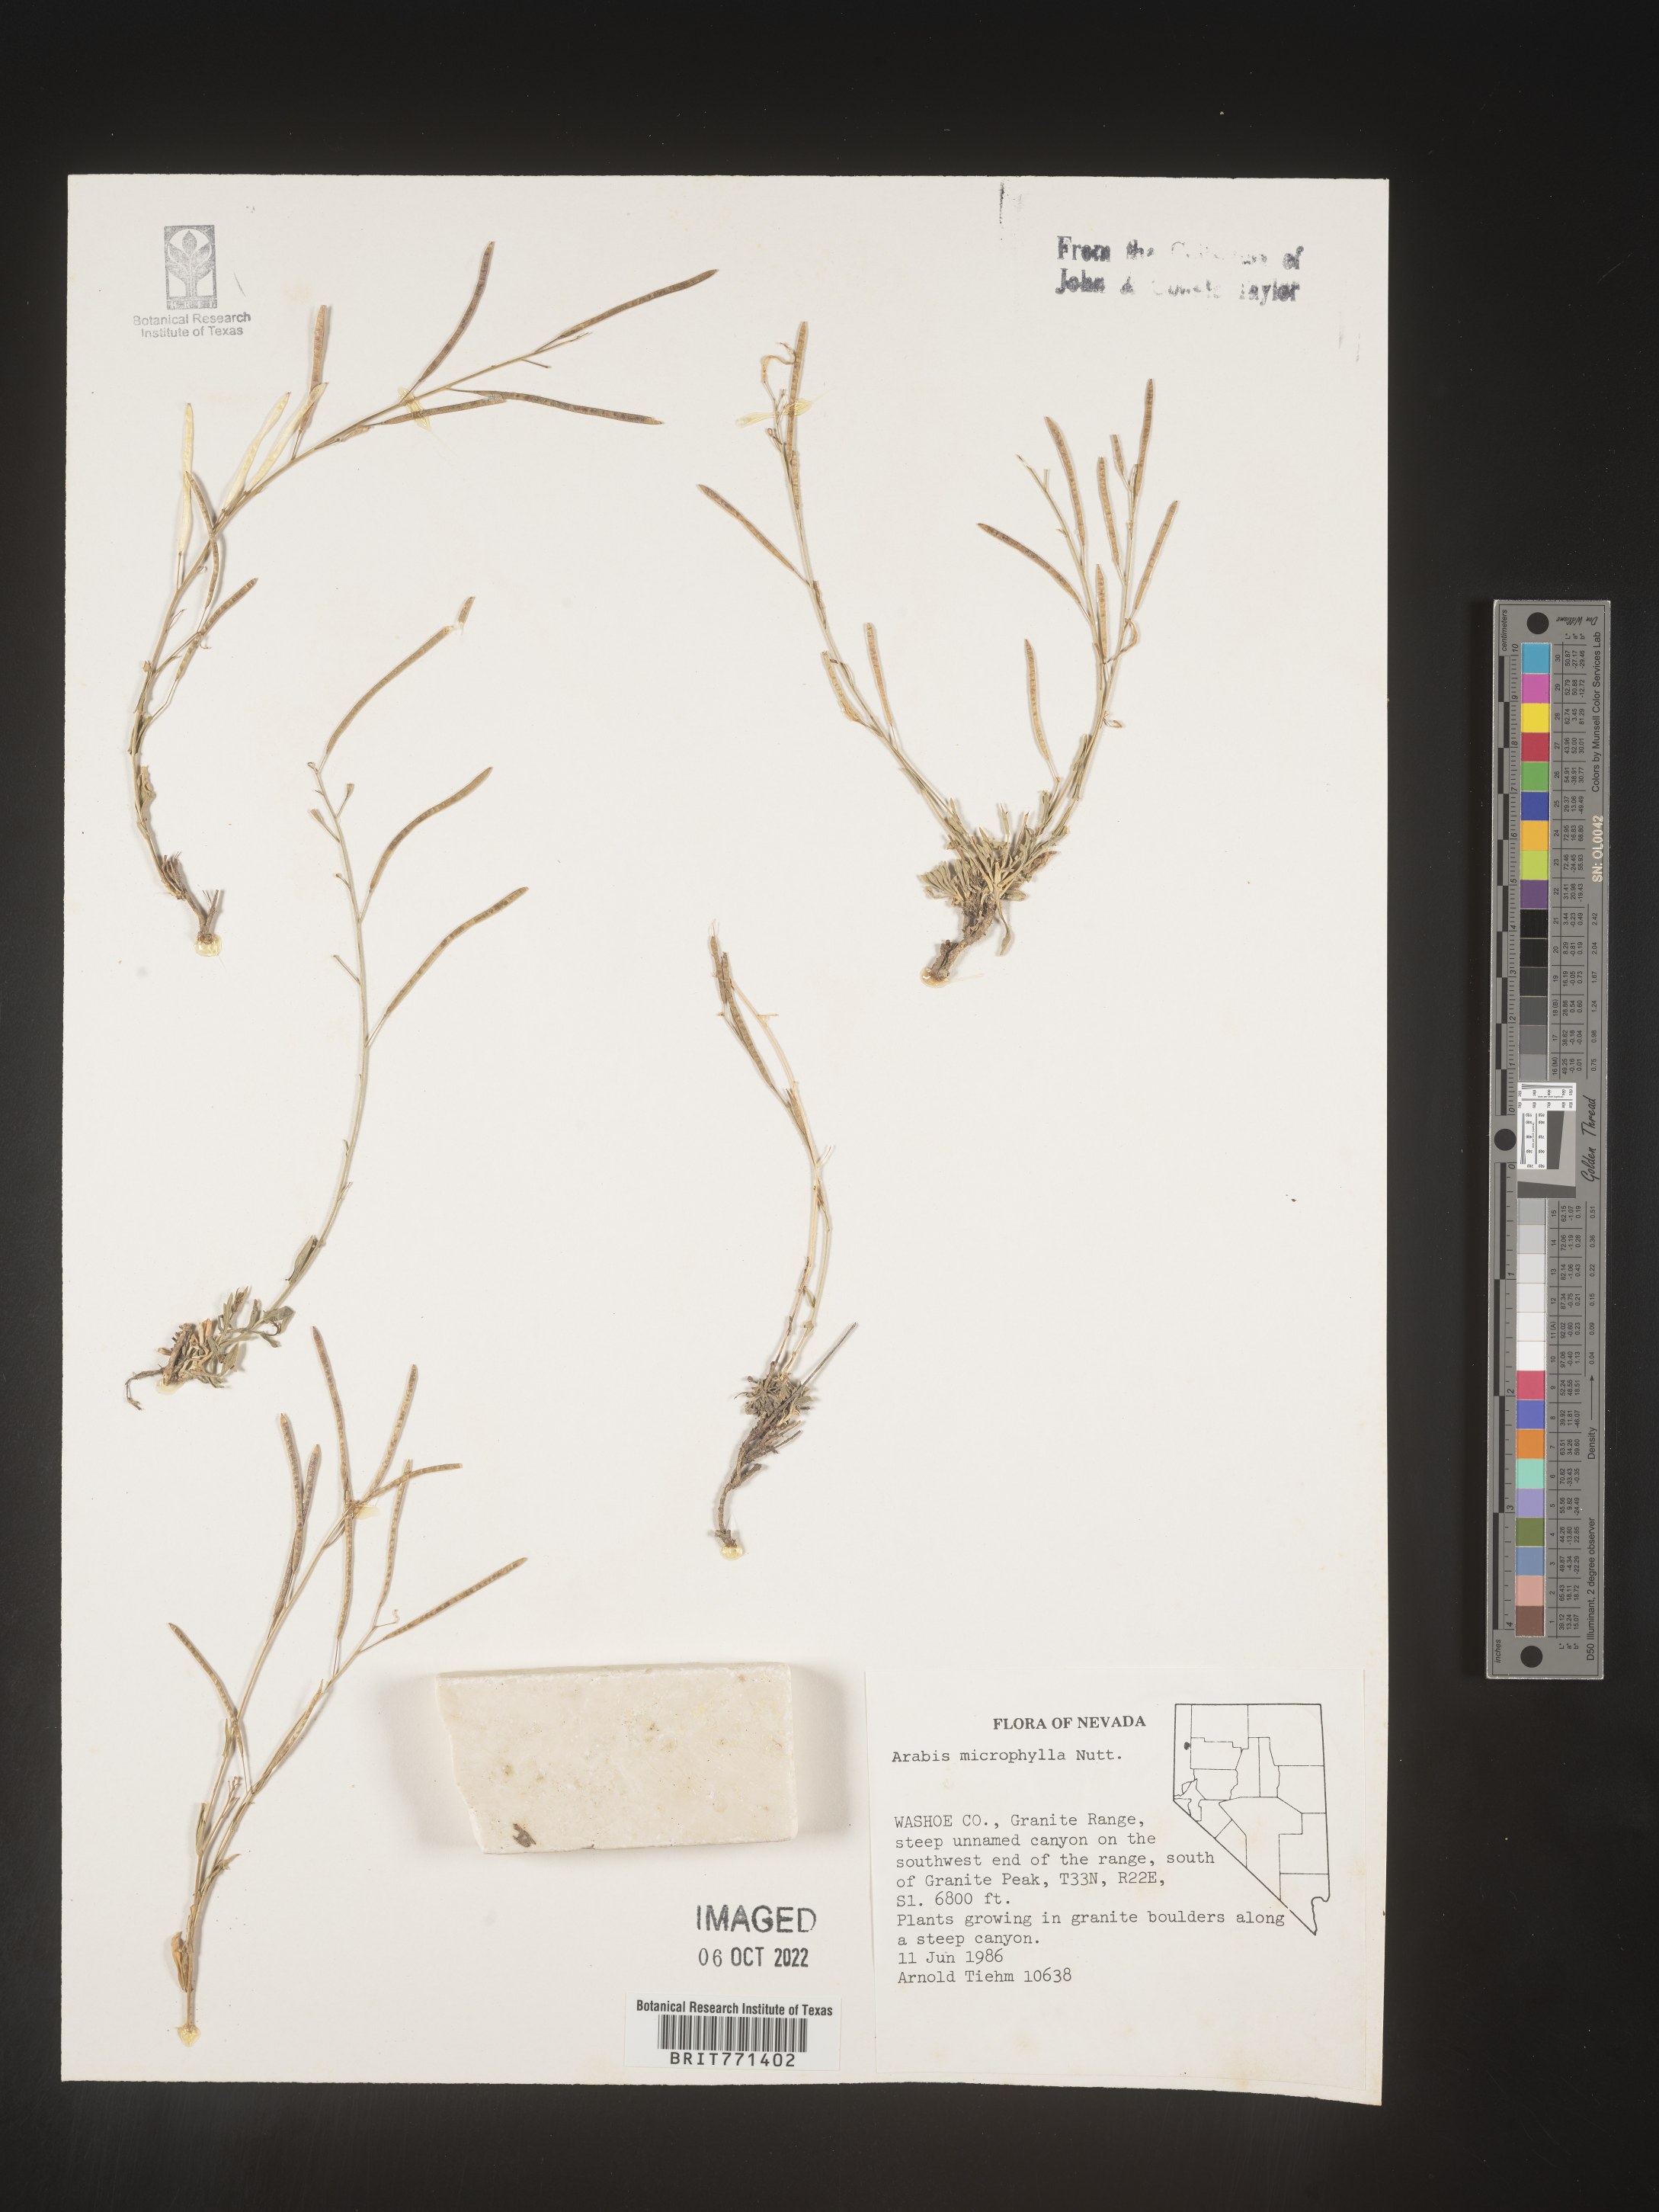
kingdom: Plantae
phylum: Tracheophyta
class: Magnoliopsida
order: Brassicales
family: Brassicaceae
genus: Arabis
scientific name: Arabis
